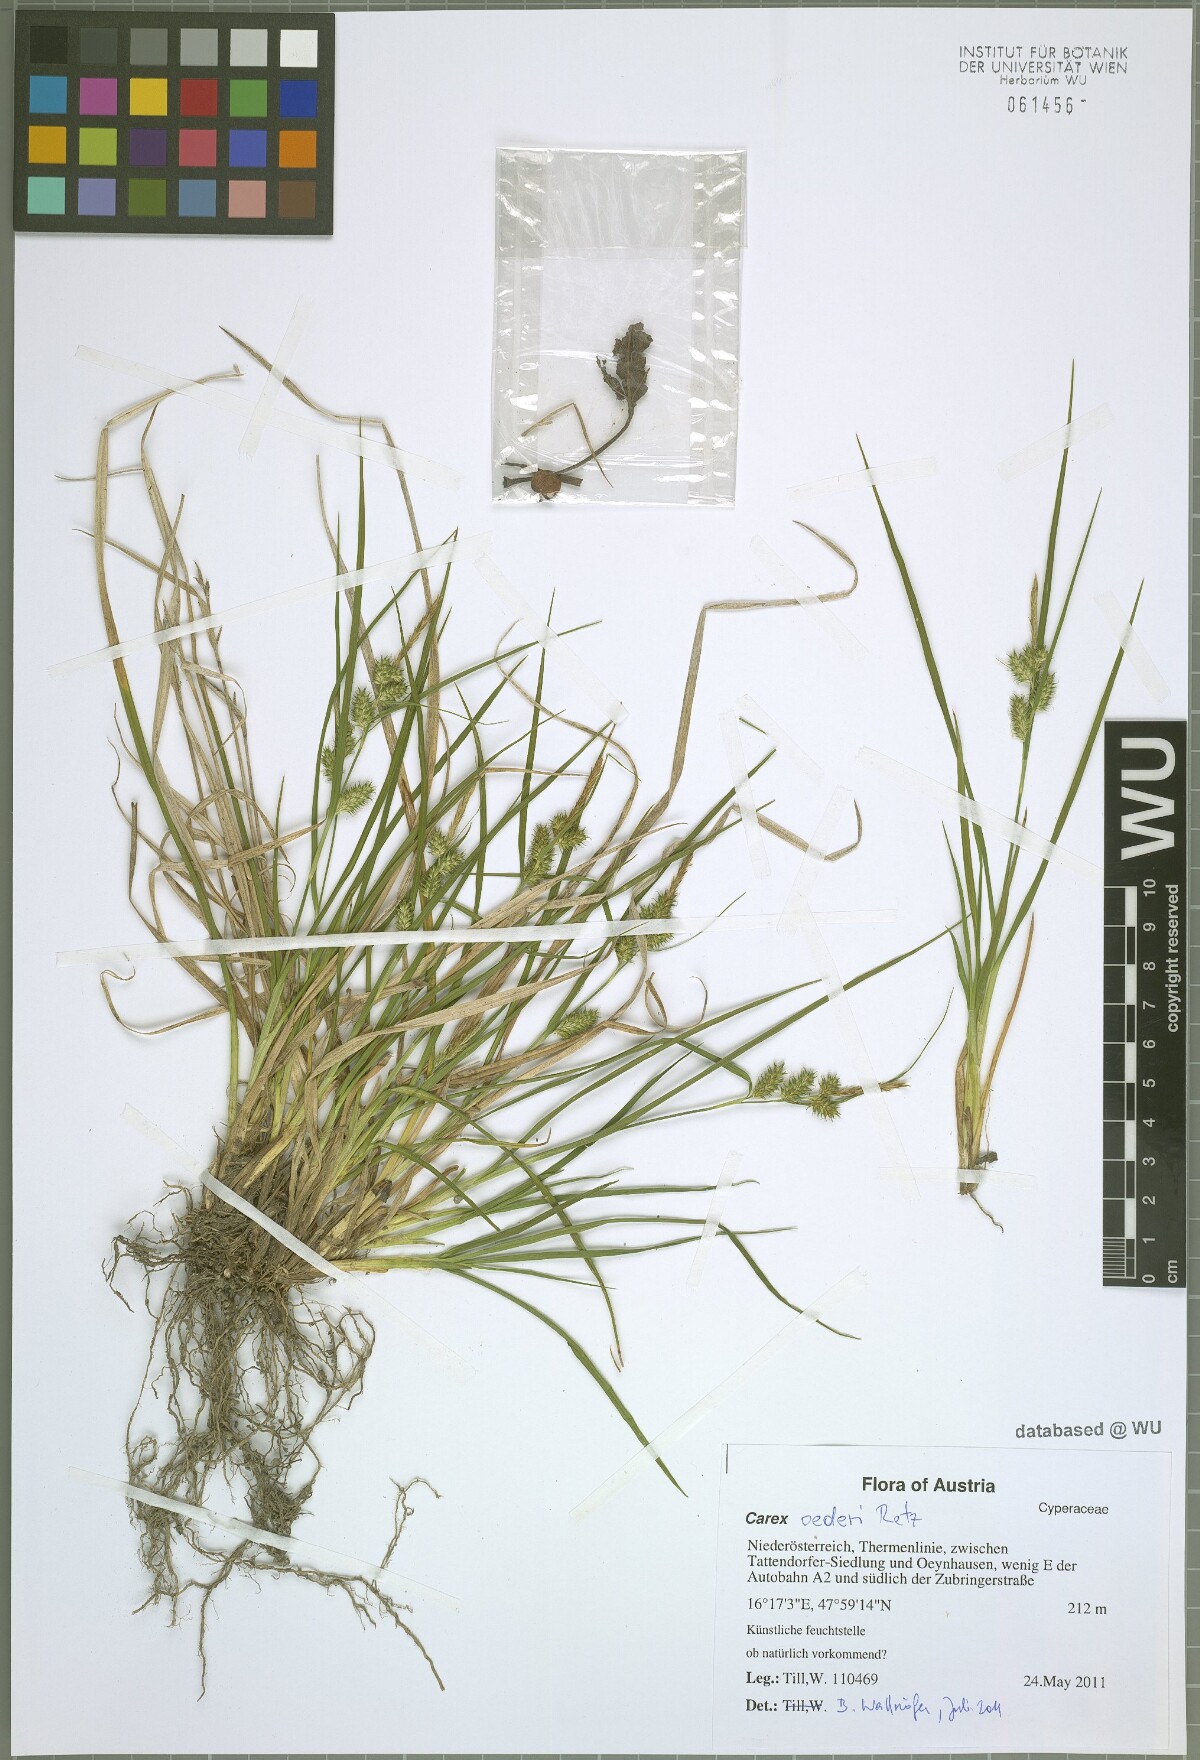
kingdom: Plantae
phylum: Tracheophyta
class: Liliopsida
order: Poales
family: Cyperaceae
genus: Carex
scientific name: Carex oederi
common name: Common & small-fruited yellow-sedge
